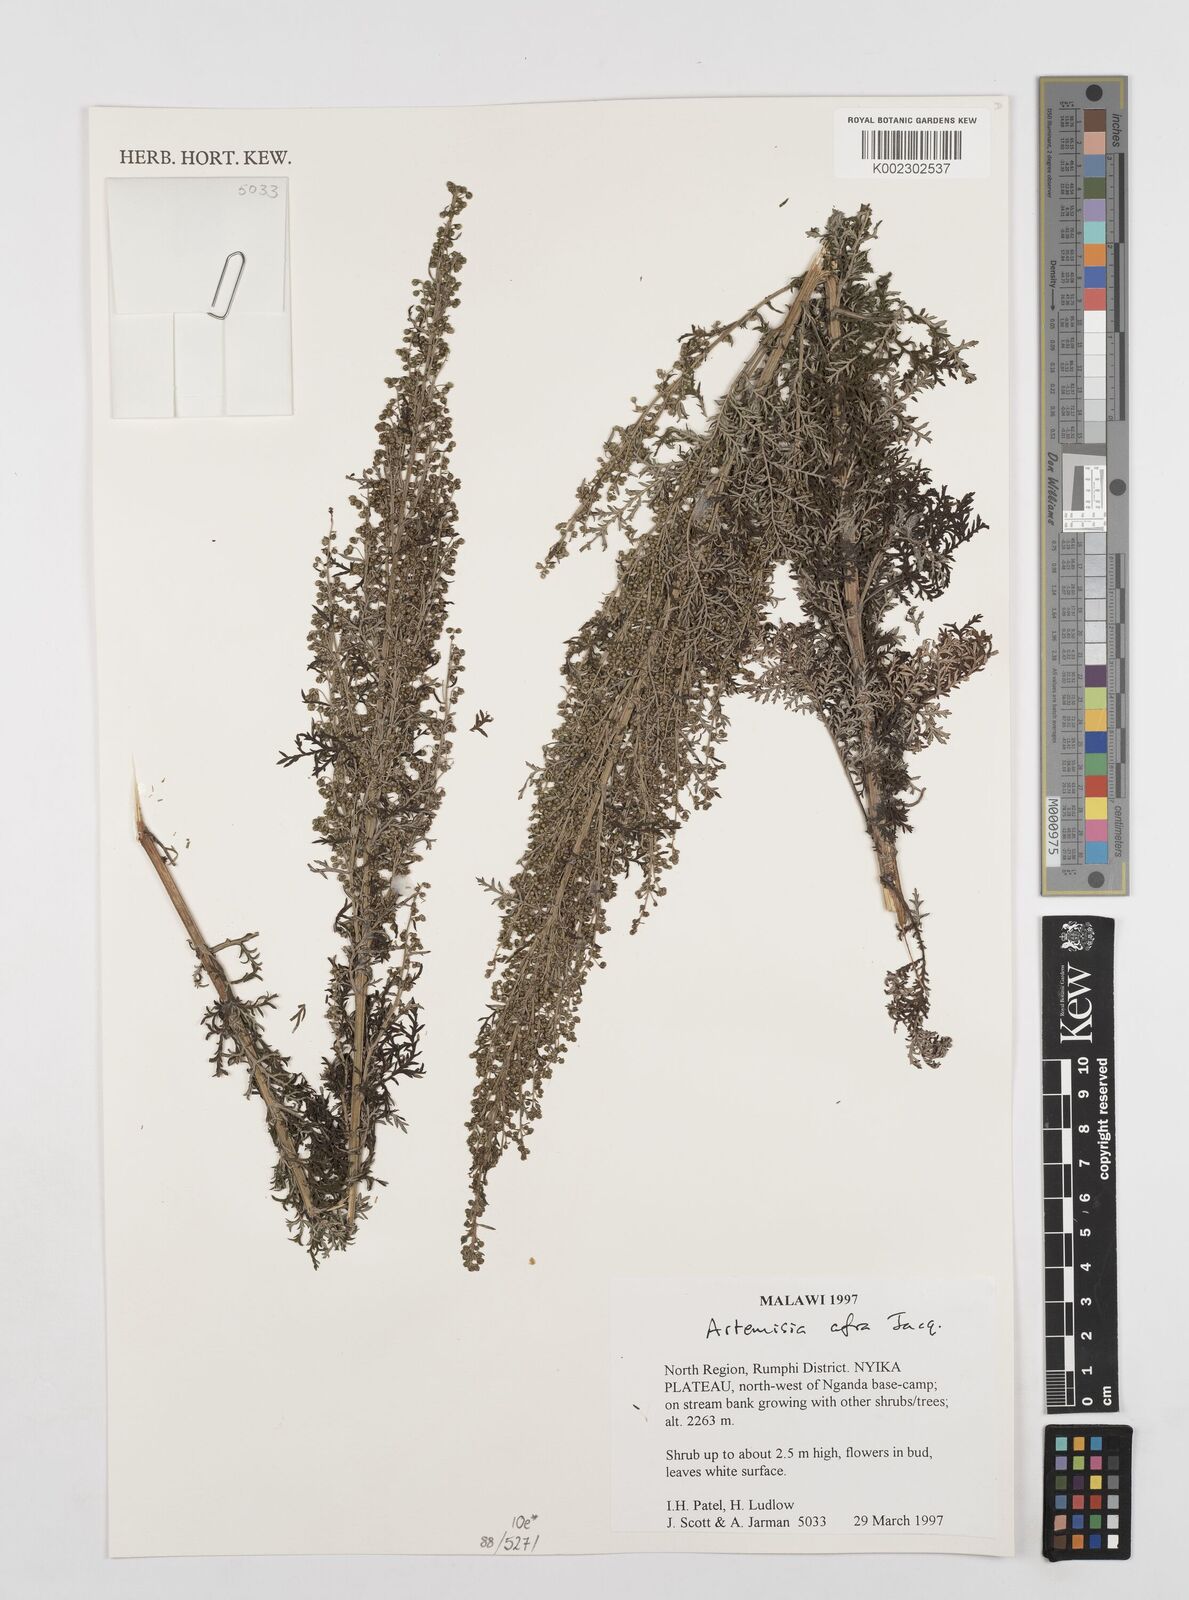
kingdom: Plantae
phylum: Tracheophyta
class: Magnoliopsida
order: Asterales
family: Asteraceae
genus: Artemisia
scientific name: Artemisia afra
